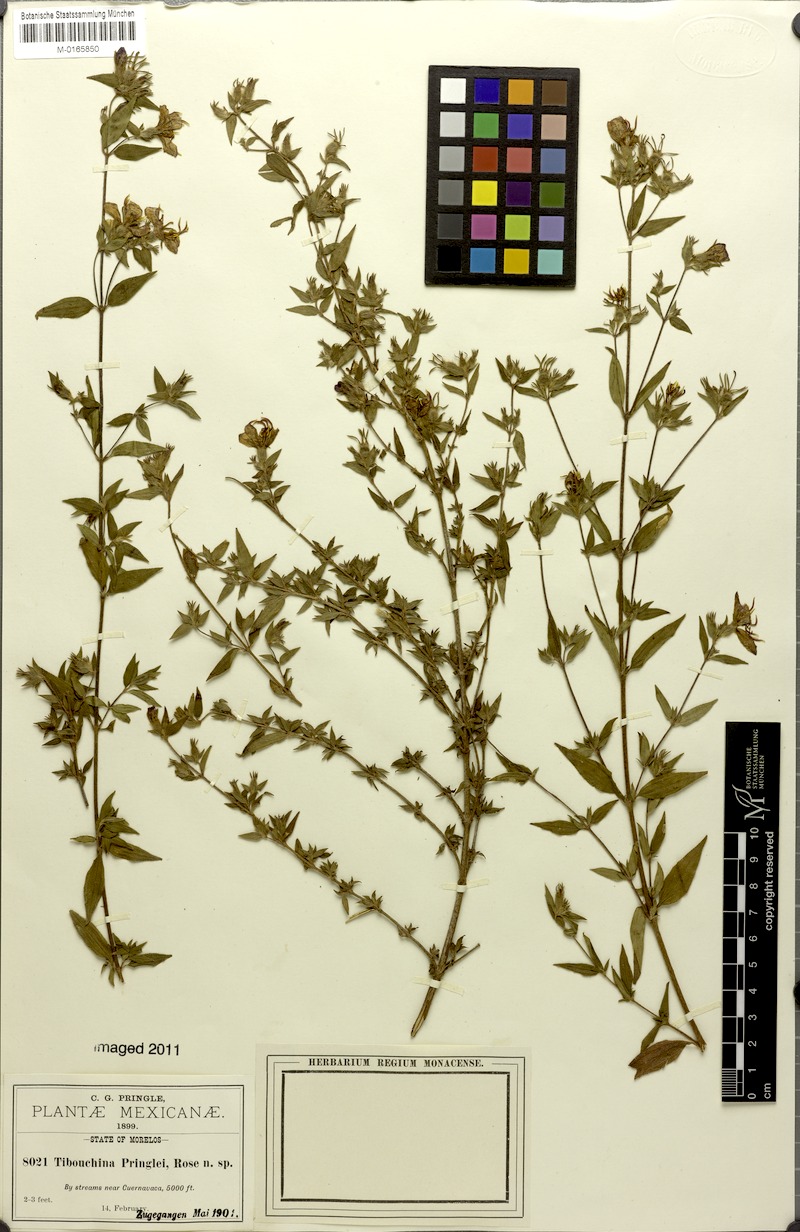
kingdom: Plantae
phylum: Tracheophyta
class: Magnoliopsida
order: Myrtales
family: Melastomataceae
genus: Tibouchina
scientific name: Tibouchina
